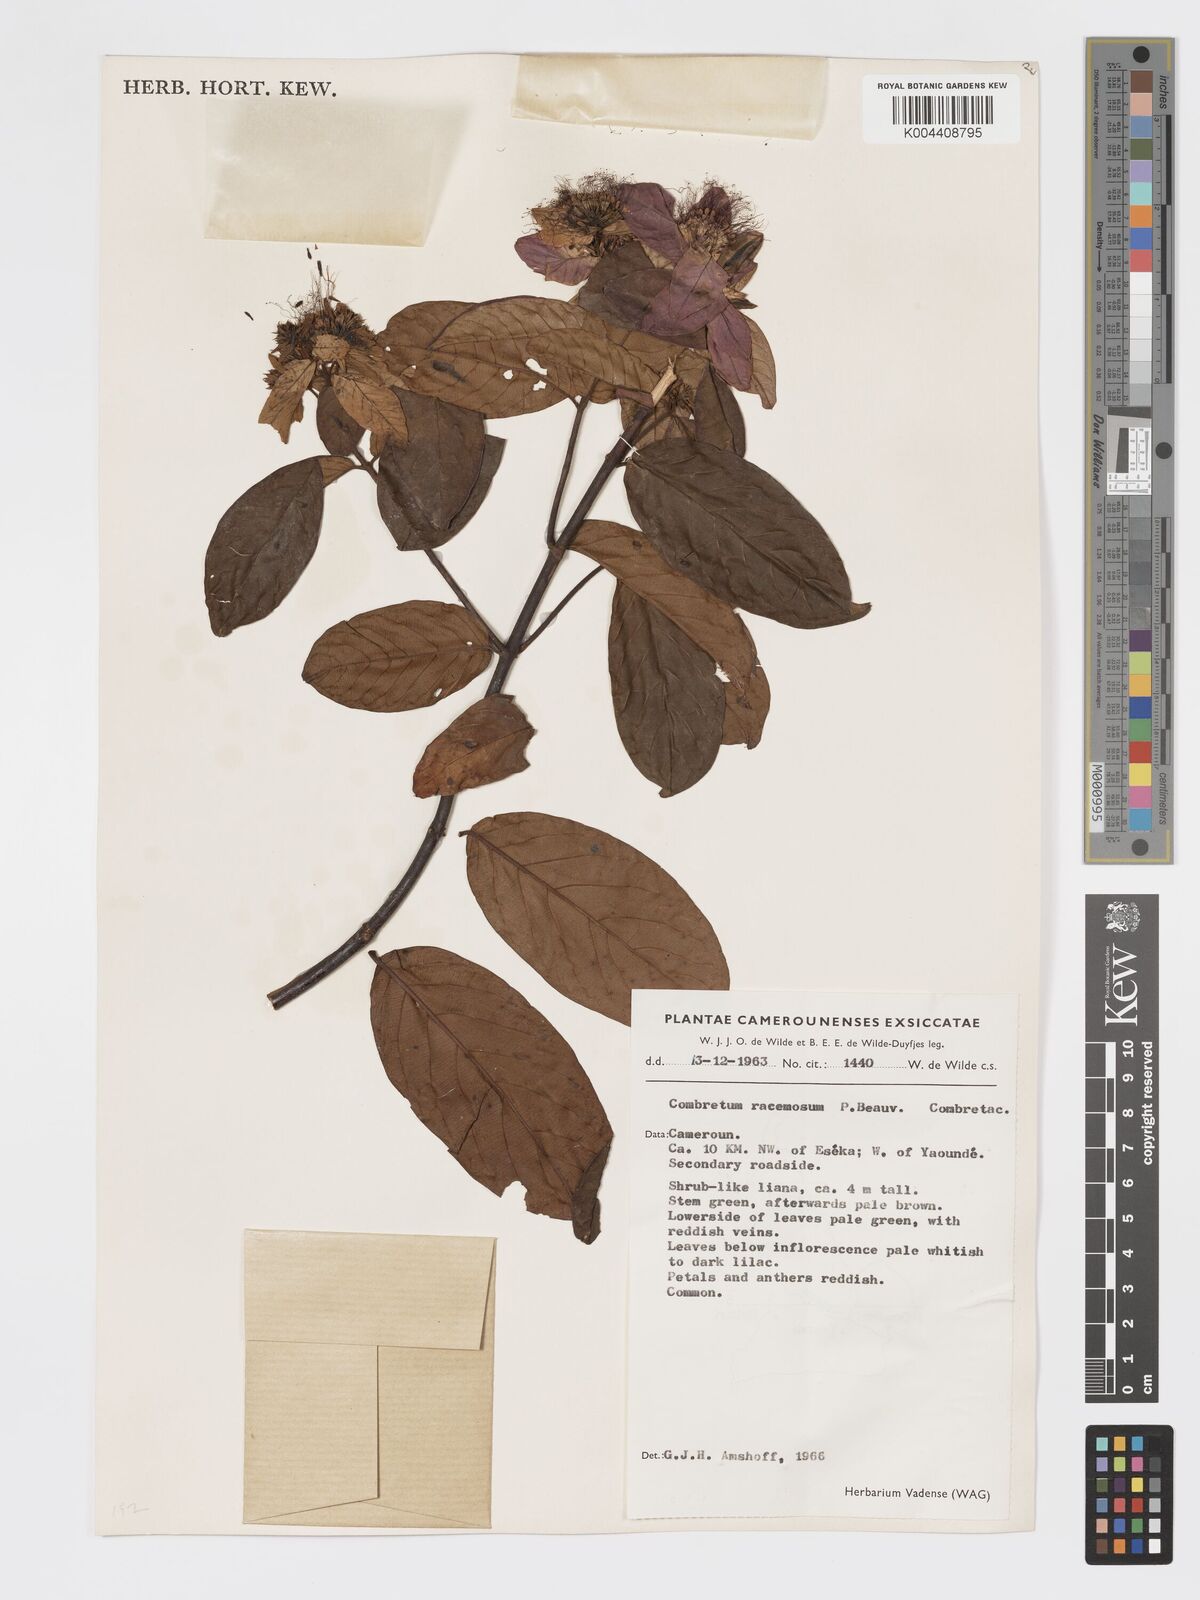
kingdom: Plantae
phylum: Tracheophyta
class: Magnoliopsida
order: Myrtales
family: Combretaceae
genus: Combretum
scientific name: Combretum racemosum
